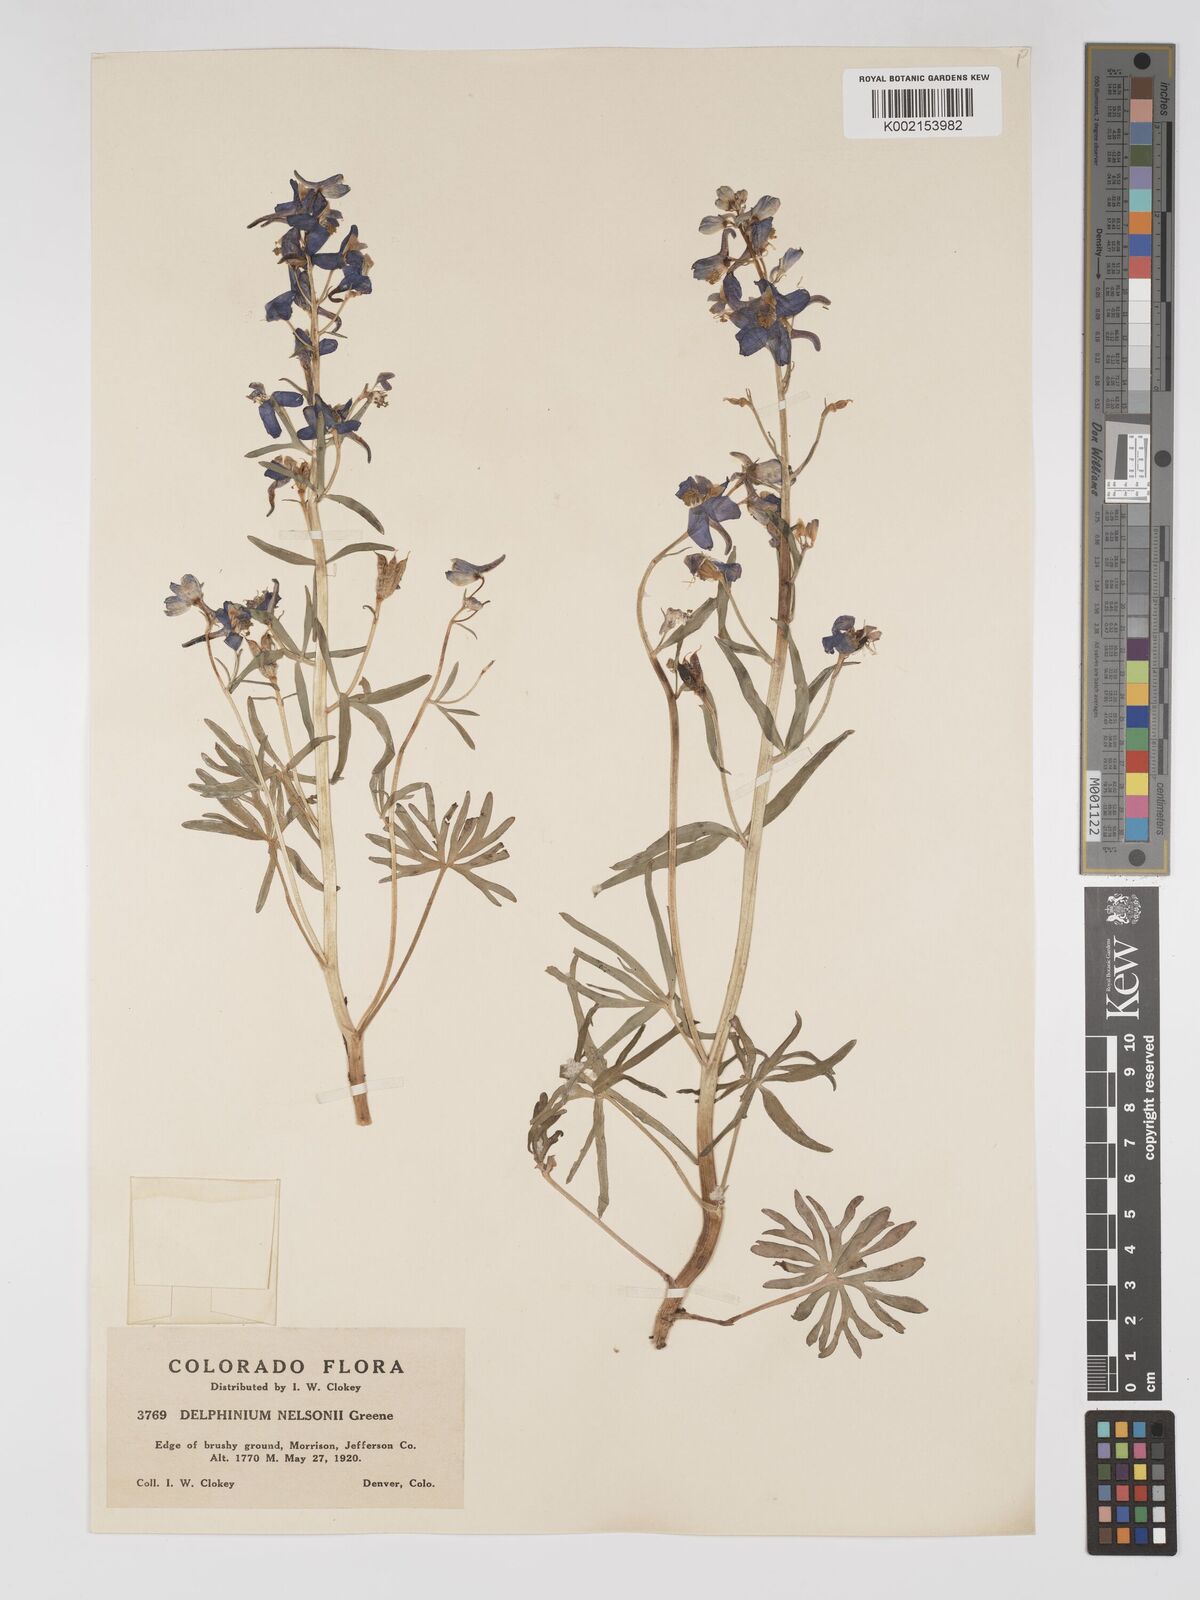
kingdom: Plantae
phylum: Tracheophyta
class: Magnoliopsida
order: Ranunculales
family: Ranunculaceae
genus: Delphinium
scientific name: Delphinium nuttallianum
